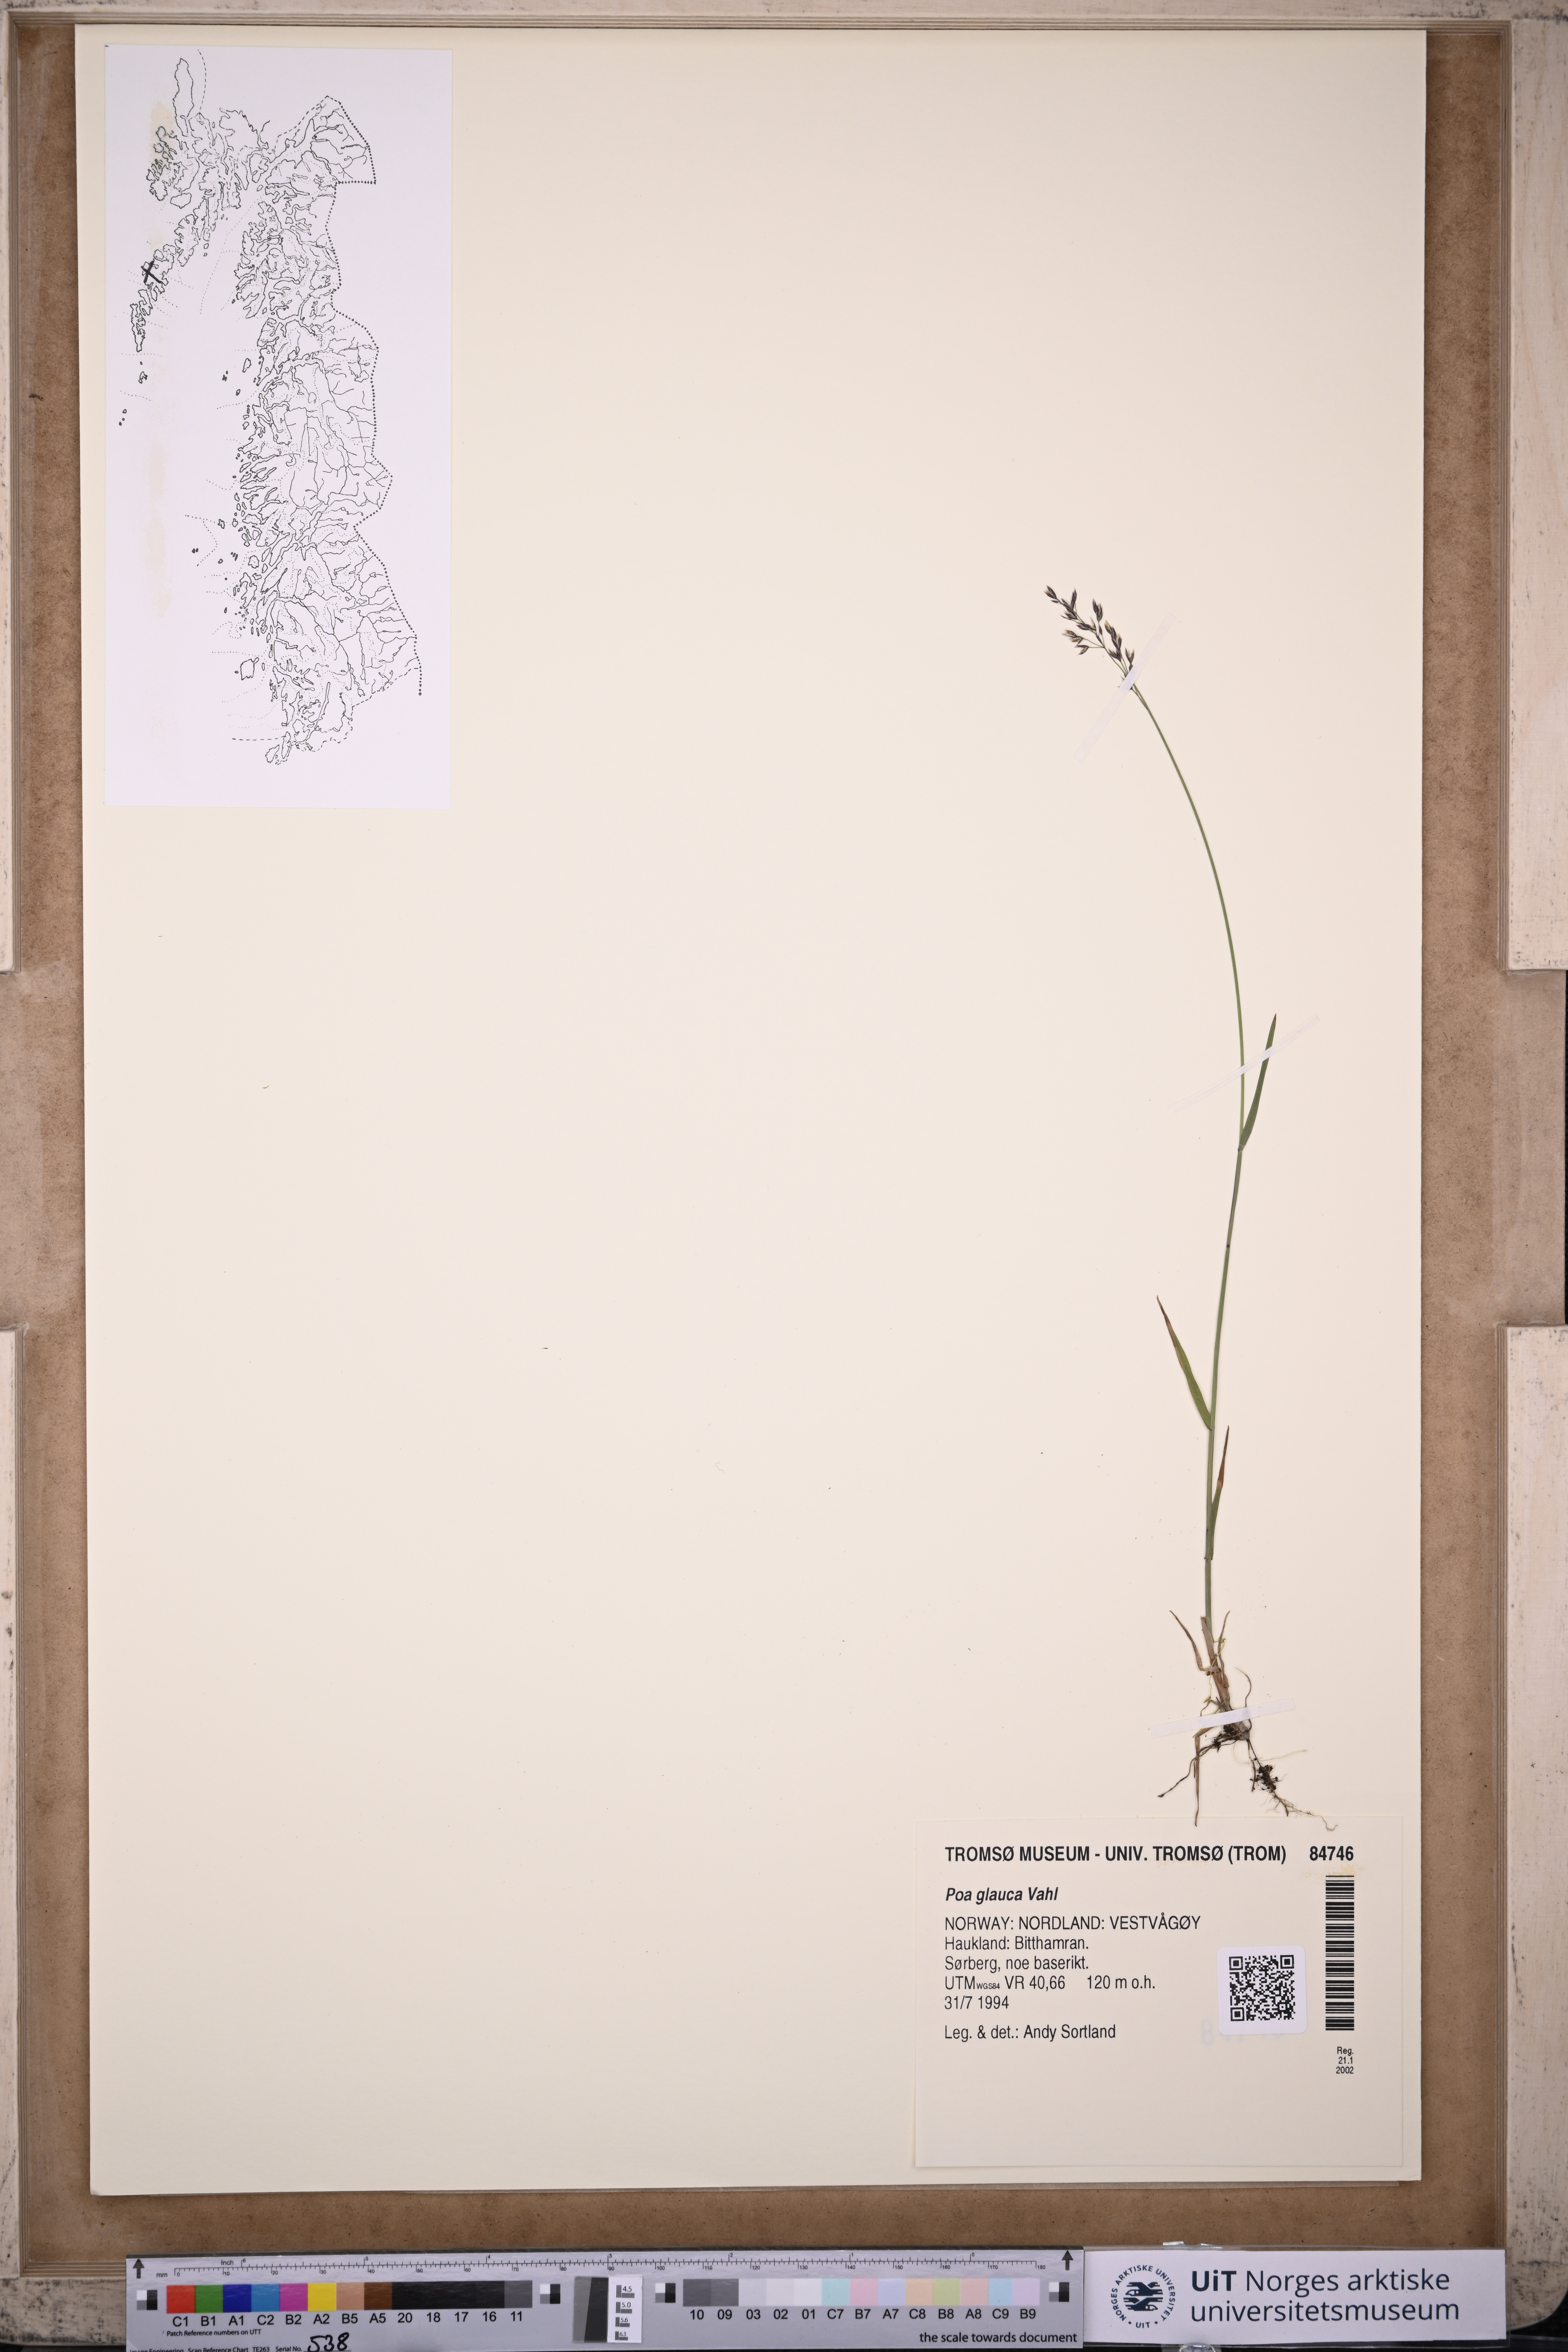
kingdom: Plantae
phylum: Tracheophyta
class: Liliopsida
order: Poales
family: Poaceae
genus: Poa
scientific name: Poa glauca
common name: Glaucous bluegrass
